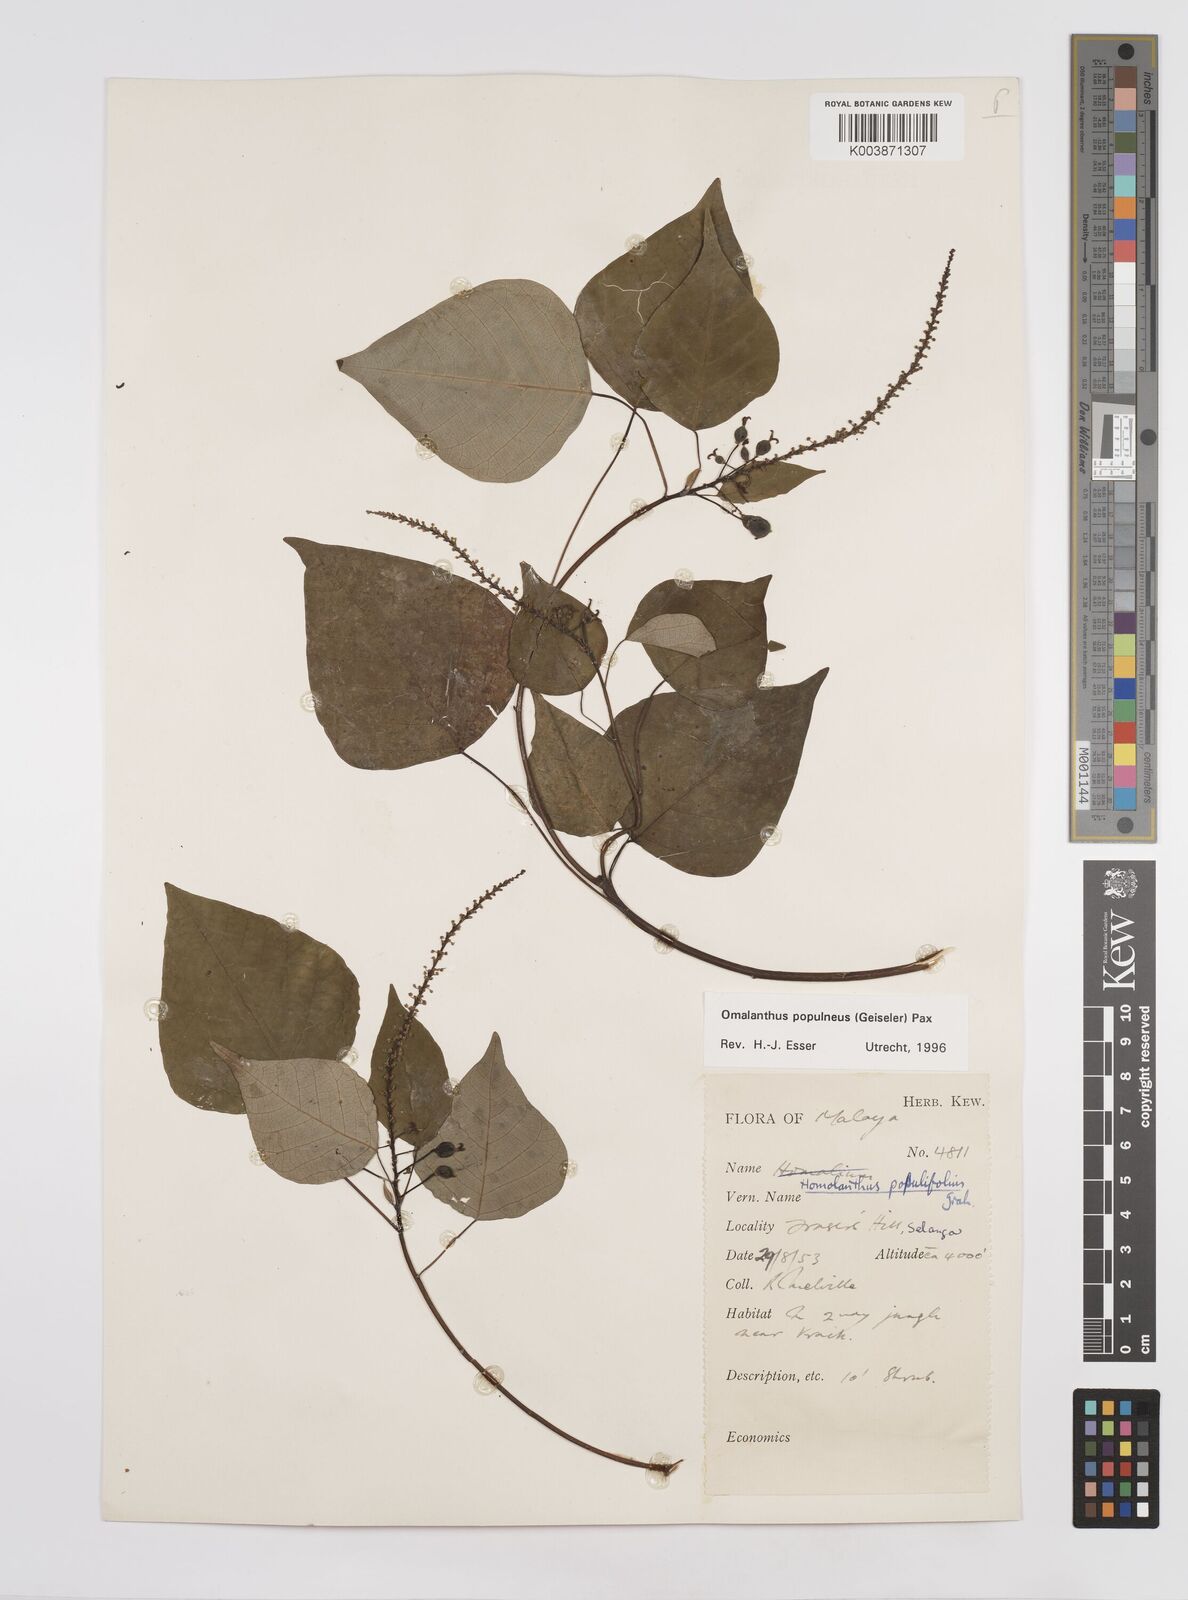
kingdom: Plantae
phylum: Tracheophyta
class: Magnoliopsida
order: Malpighiales
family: Euphorbiaceae
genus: Homalanthus
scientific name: Homalanthus populneus
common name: Spurge
